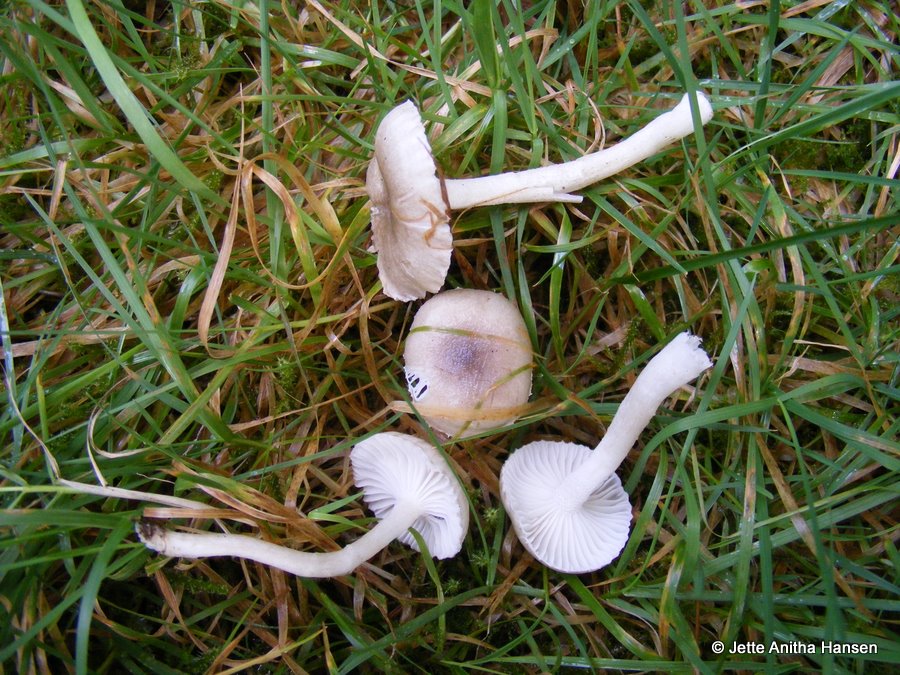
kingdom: Fungi
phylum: Basidiomycota
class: Agaricomycetes
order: Agaricales
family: Hygrophoraceae
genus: Hygrophorus
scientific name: Hygrophorus agathosmus
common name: vellugtende sneglehat
